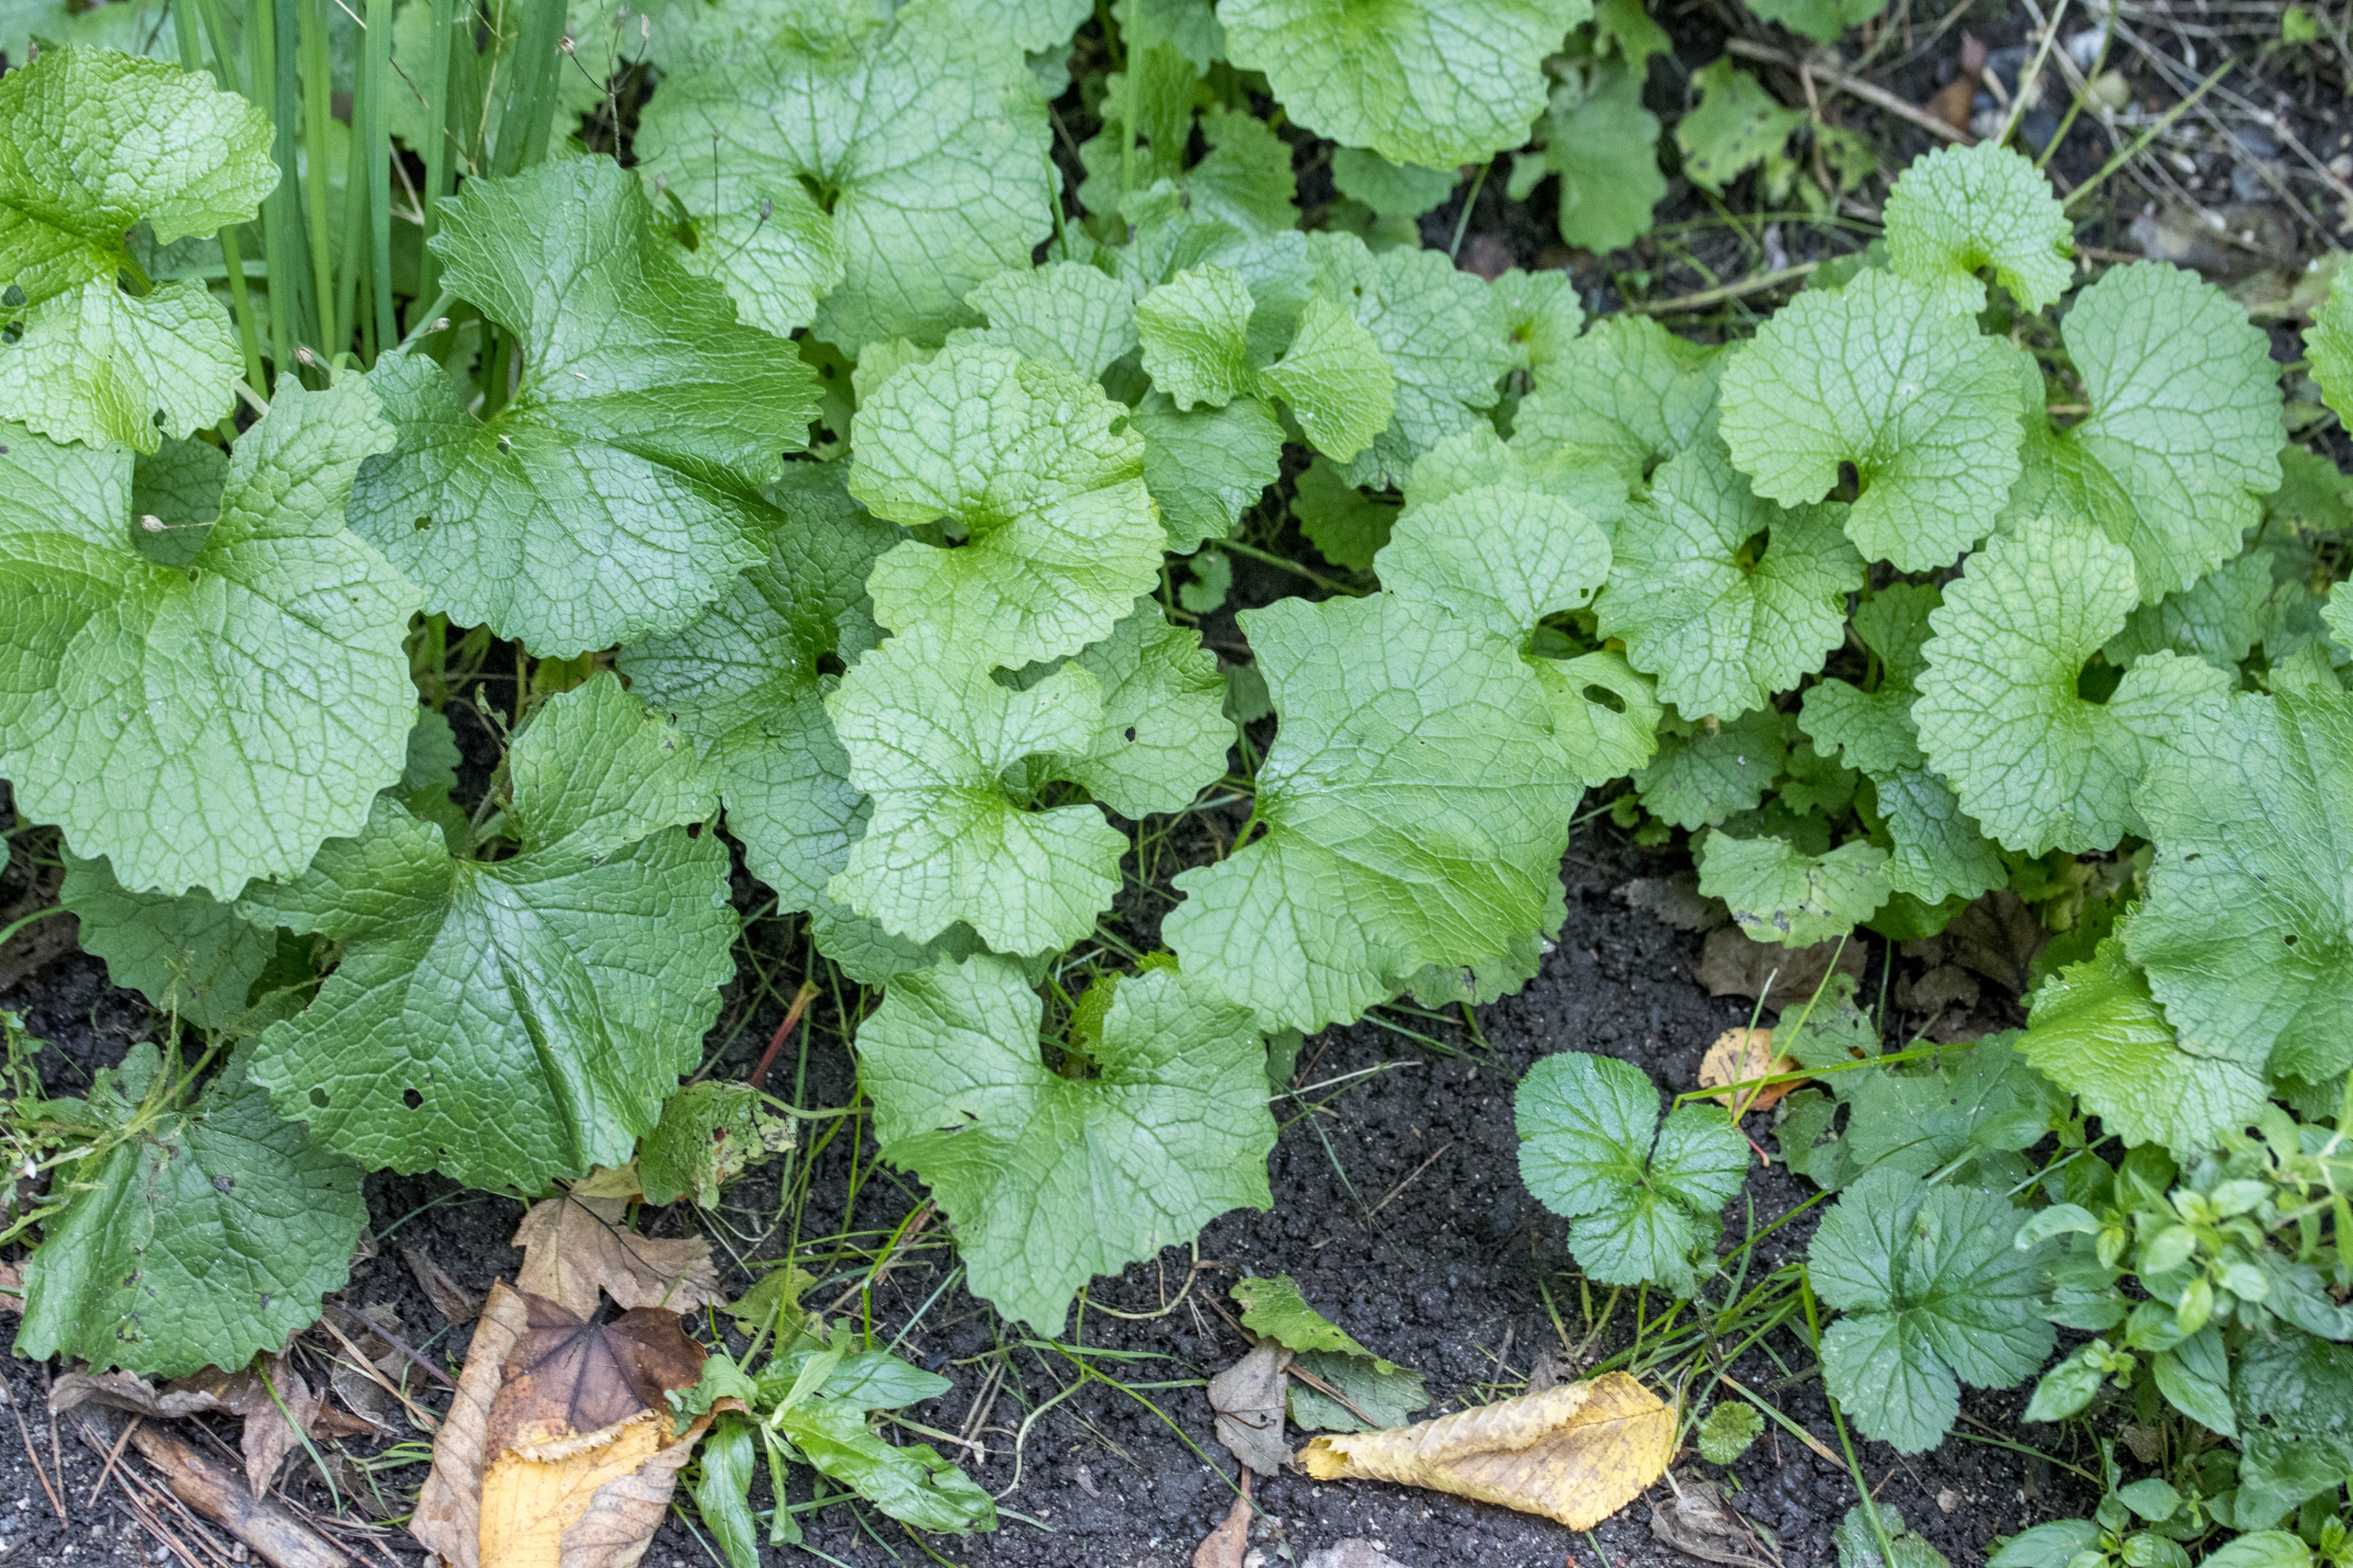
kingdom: Plantae
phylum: Tracheophyta
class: Magnoliopsida
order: Brassicales
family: Brassicaceae
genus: Alliaria
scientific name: Alliaria petiolata
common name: Løgkarse
